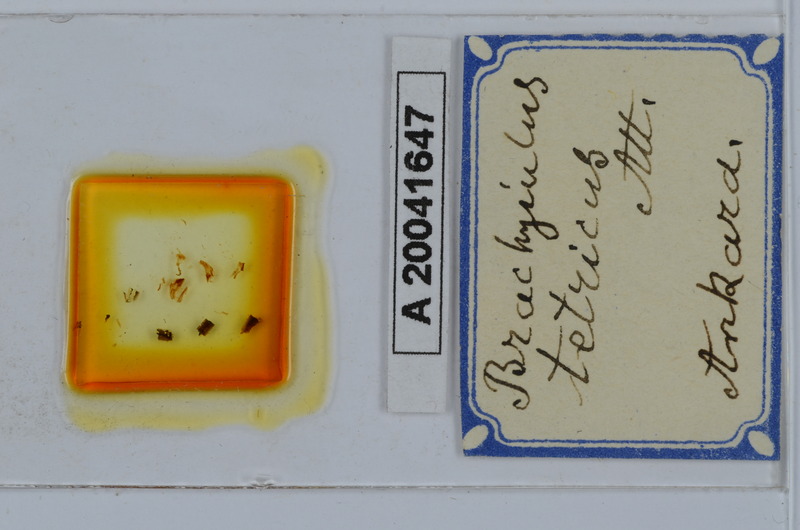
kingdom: Animalia
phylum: Arthropoda
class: Diplopoda
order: Julida
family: Julidae
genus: Cyphobrachyiulus
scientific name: Cyphobrachyiulus tetricus
